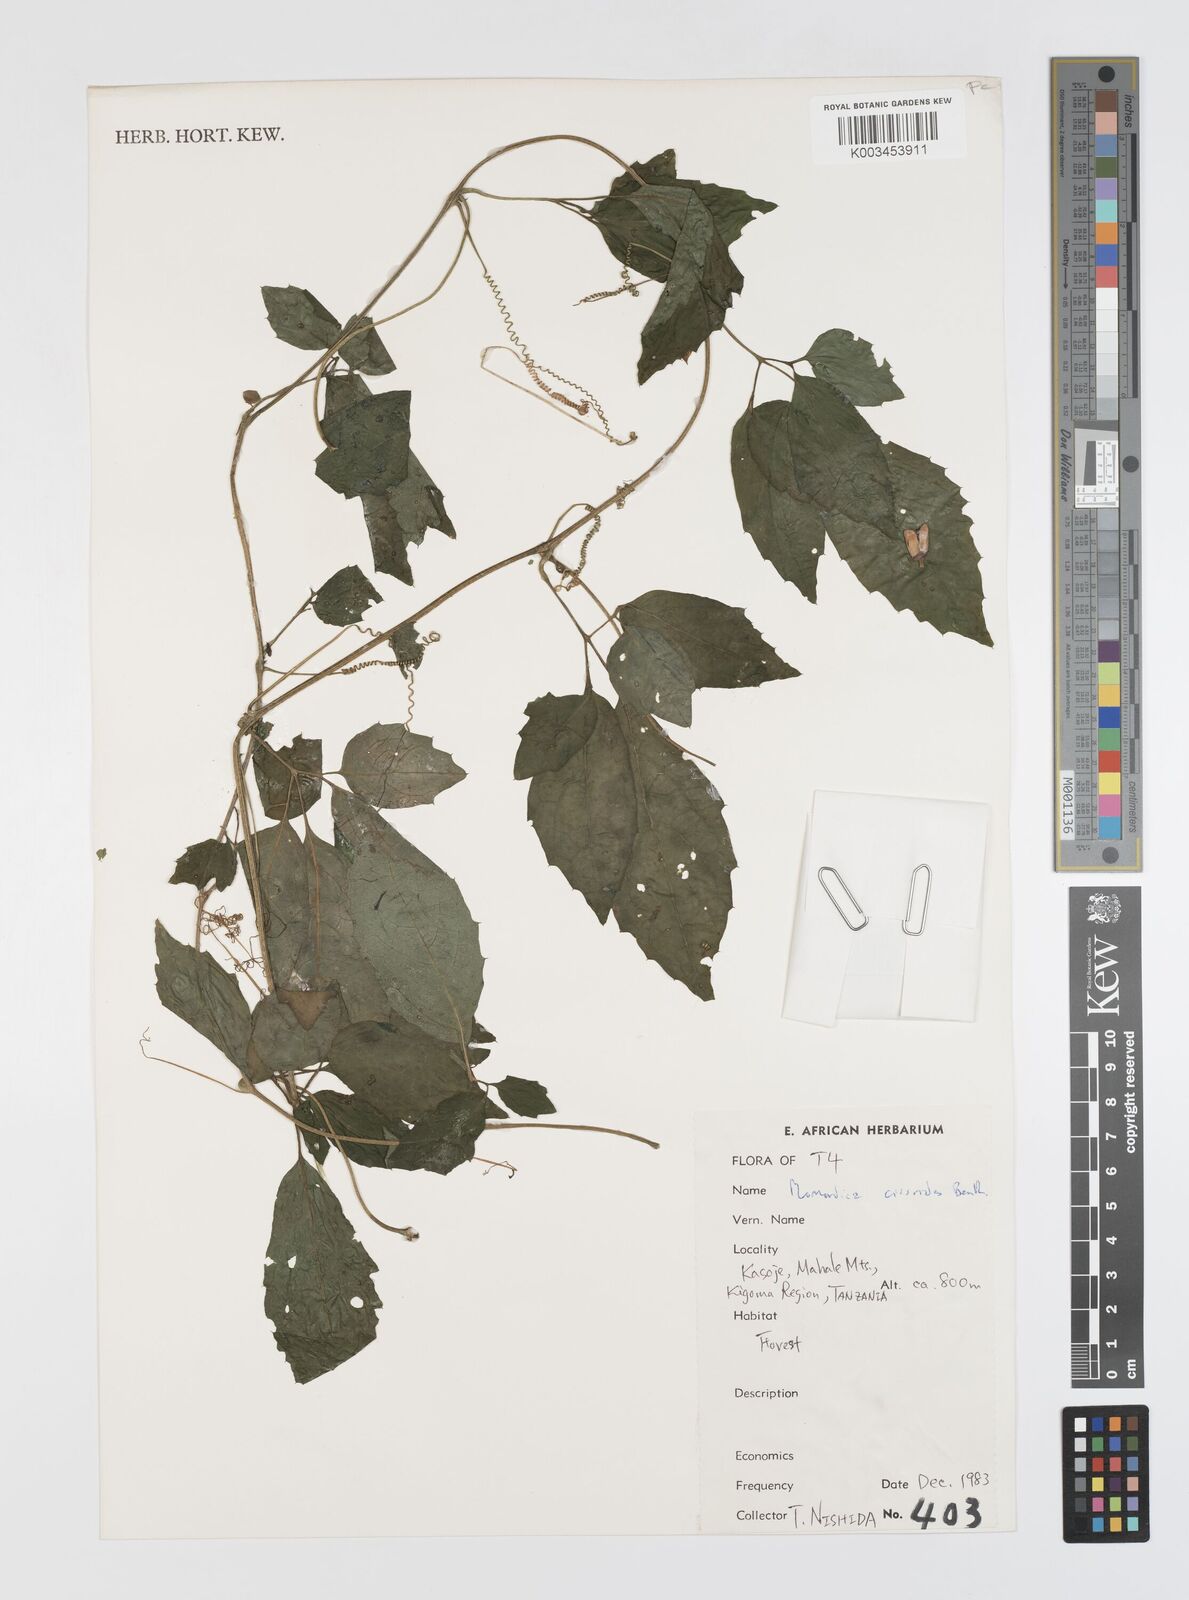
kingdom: Plantae
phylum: Tracheophyta
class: Magnoliopsida
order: Cucurbitales
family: Cucurbitaceae
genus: Momordica
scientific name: Momordica cissoides
